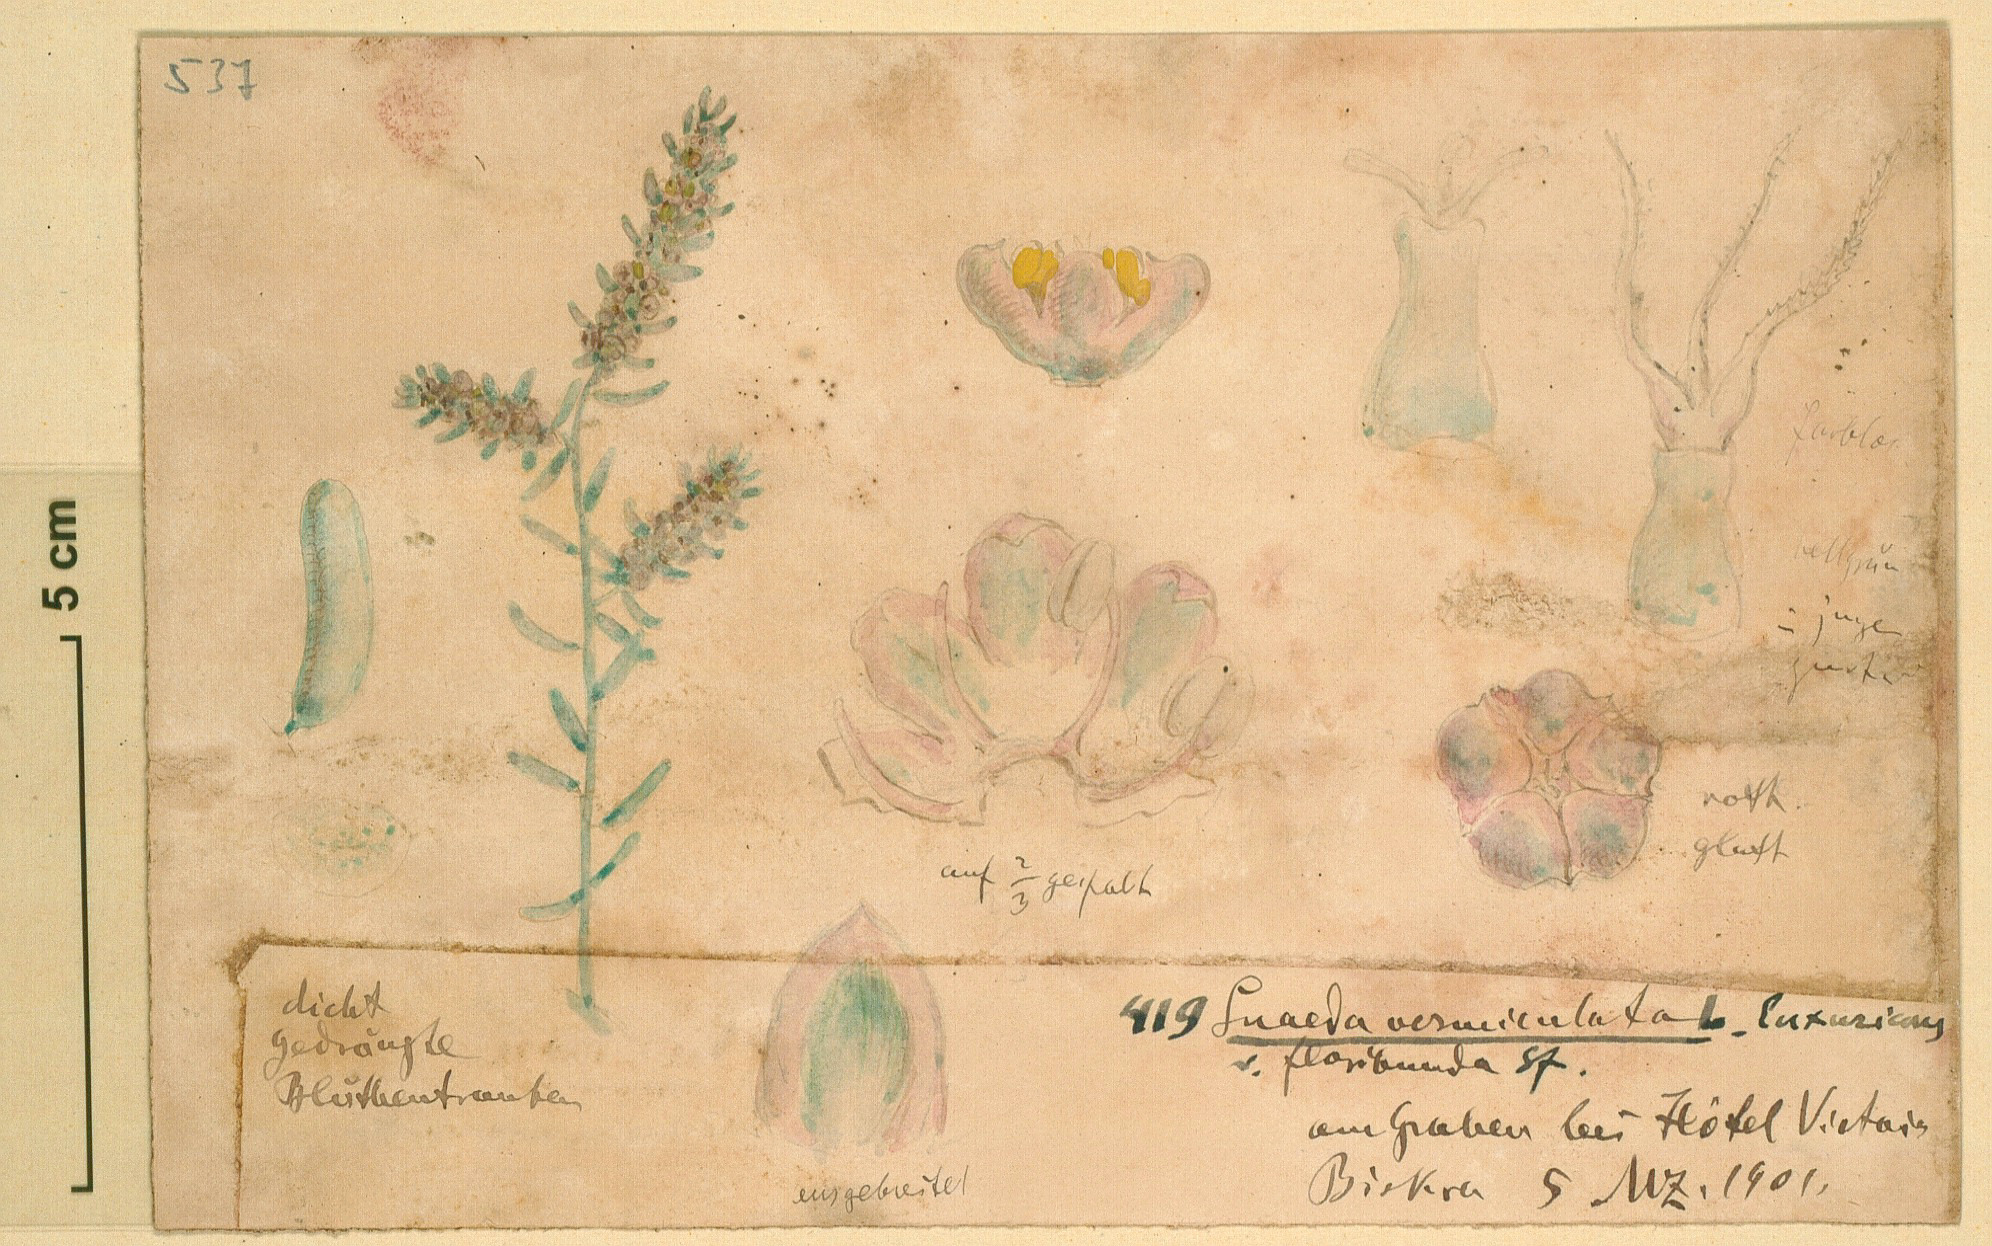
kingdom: Plantae
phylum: Tracheophyta
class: Magnoliopsida
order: Caryophyllales
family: Amaranthaceae
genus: Suaeda
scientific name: Suaeda vermiculata
